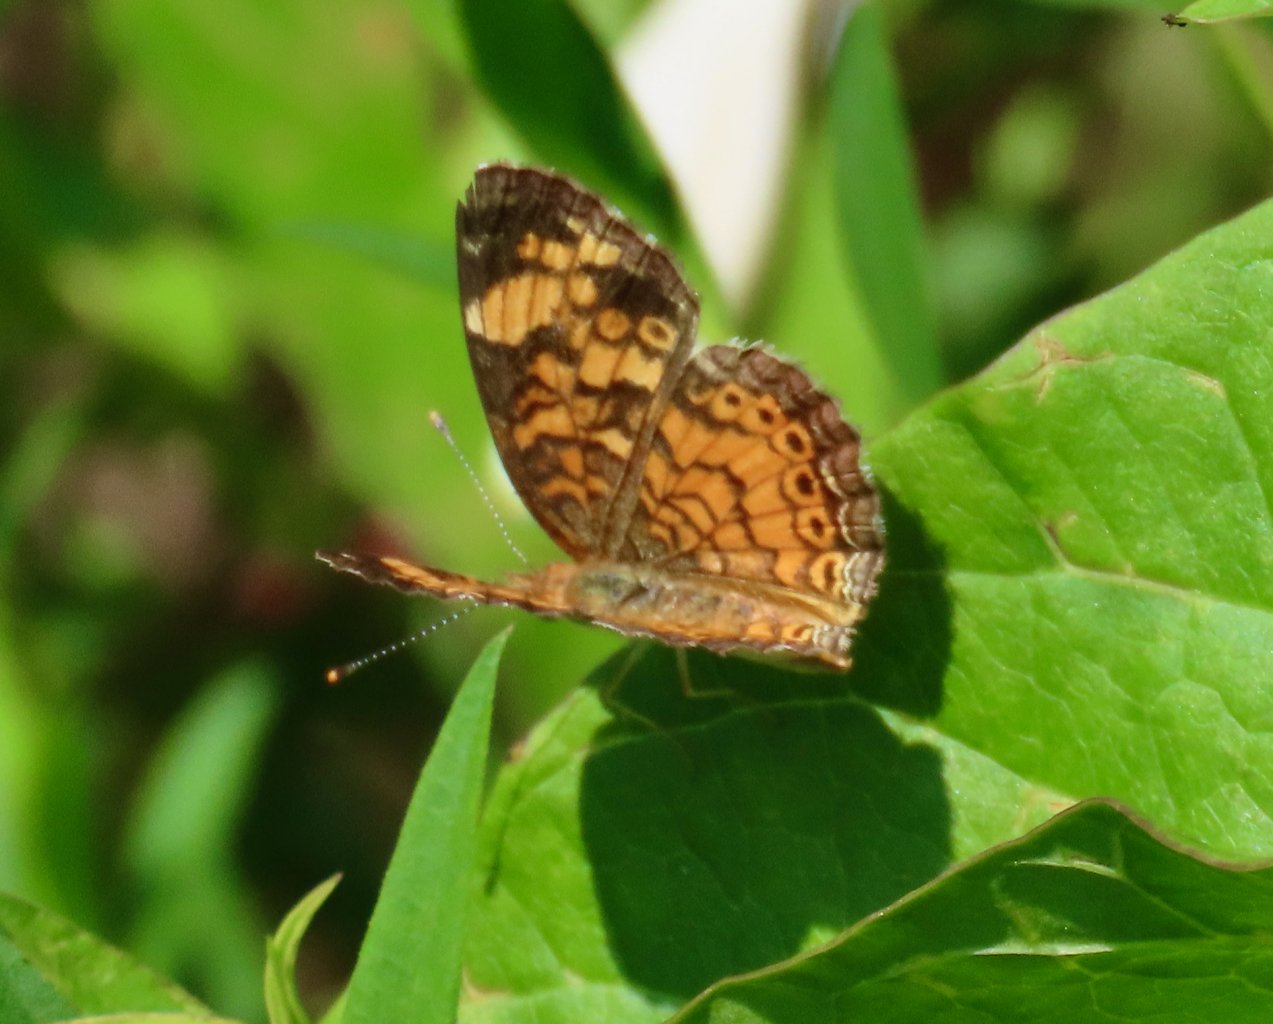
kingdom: Animalia
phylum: Arthropoda
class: Insecta
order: Lepidoptera
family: Nymphalidae
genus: Phyciodes
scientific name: Phyciodes tharos
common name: Pearl Crescent
